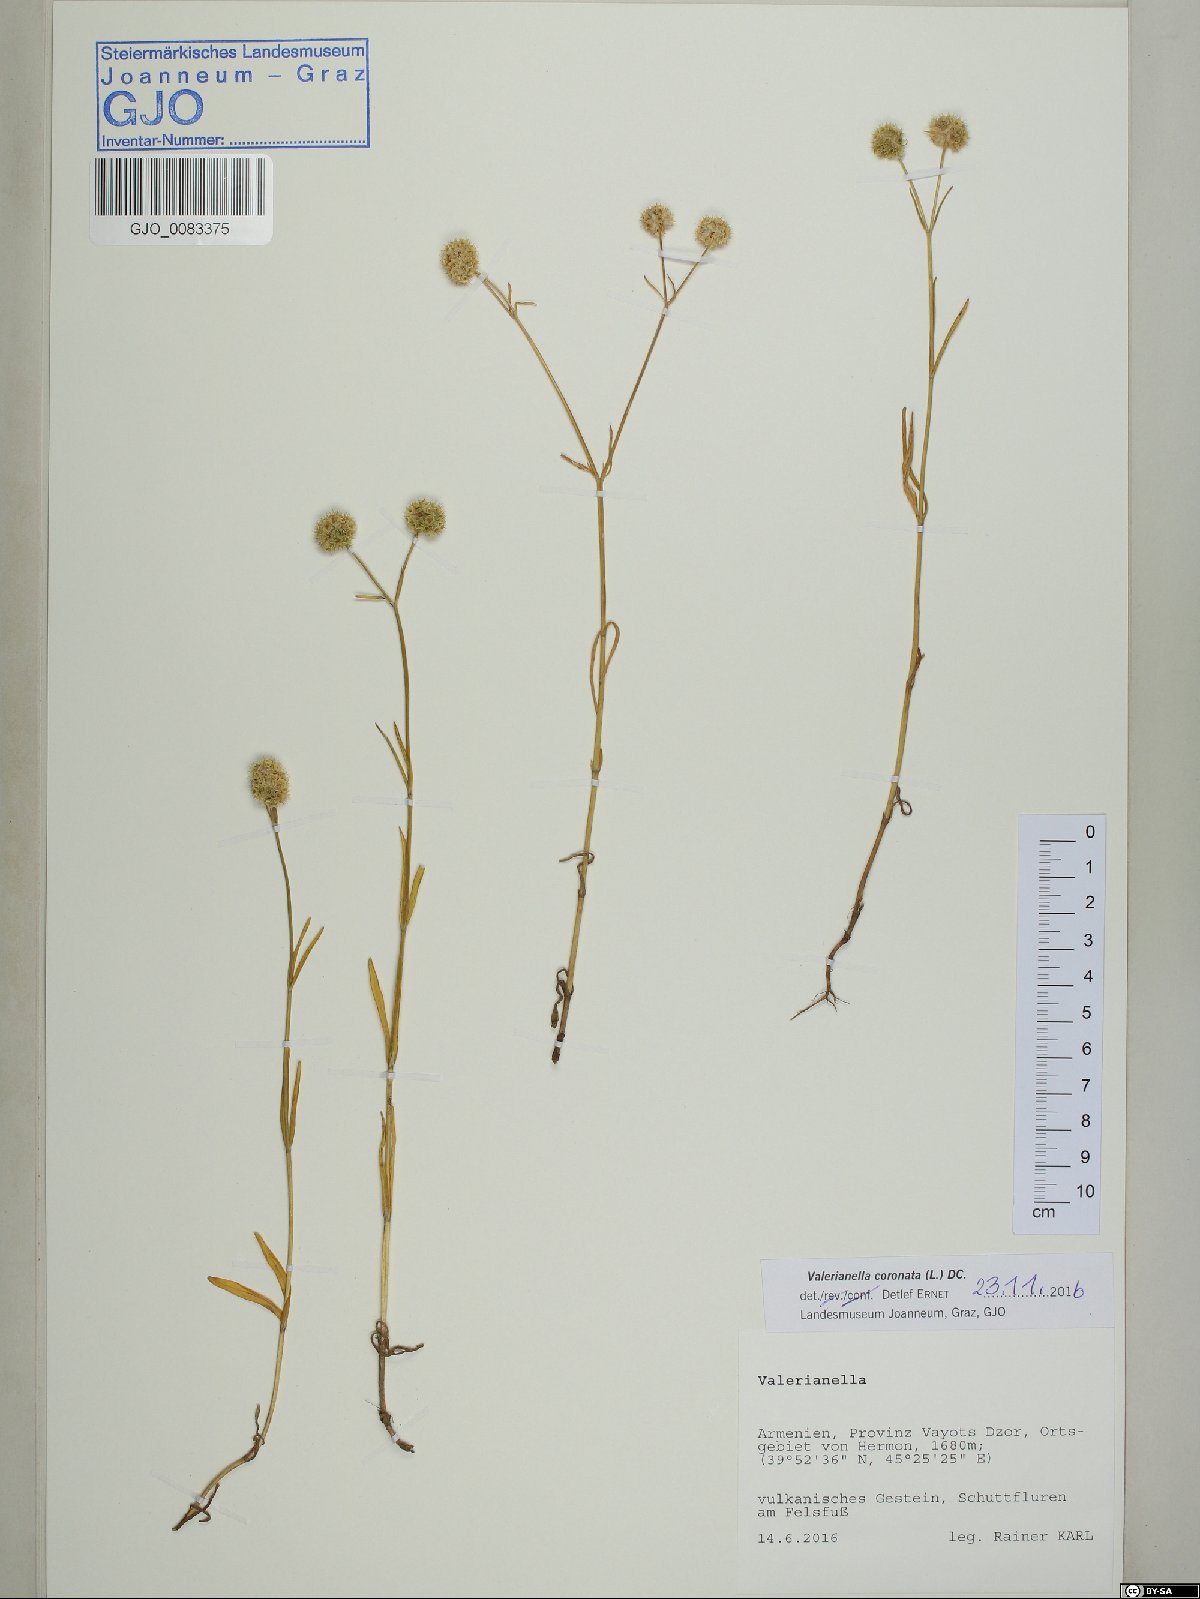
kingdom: Plantae
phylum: Tracheophyta
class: Magnoliopsida
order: Dipsacales
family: Caprifoliaceae
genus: Valerianella
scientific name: Valerianella coronata
